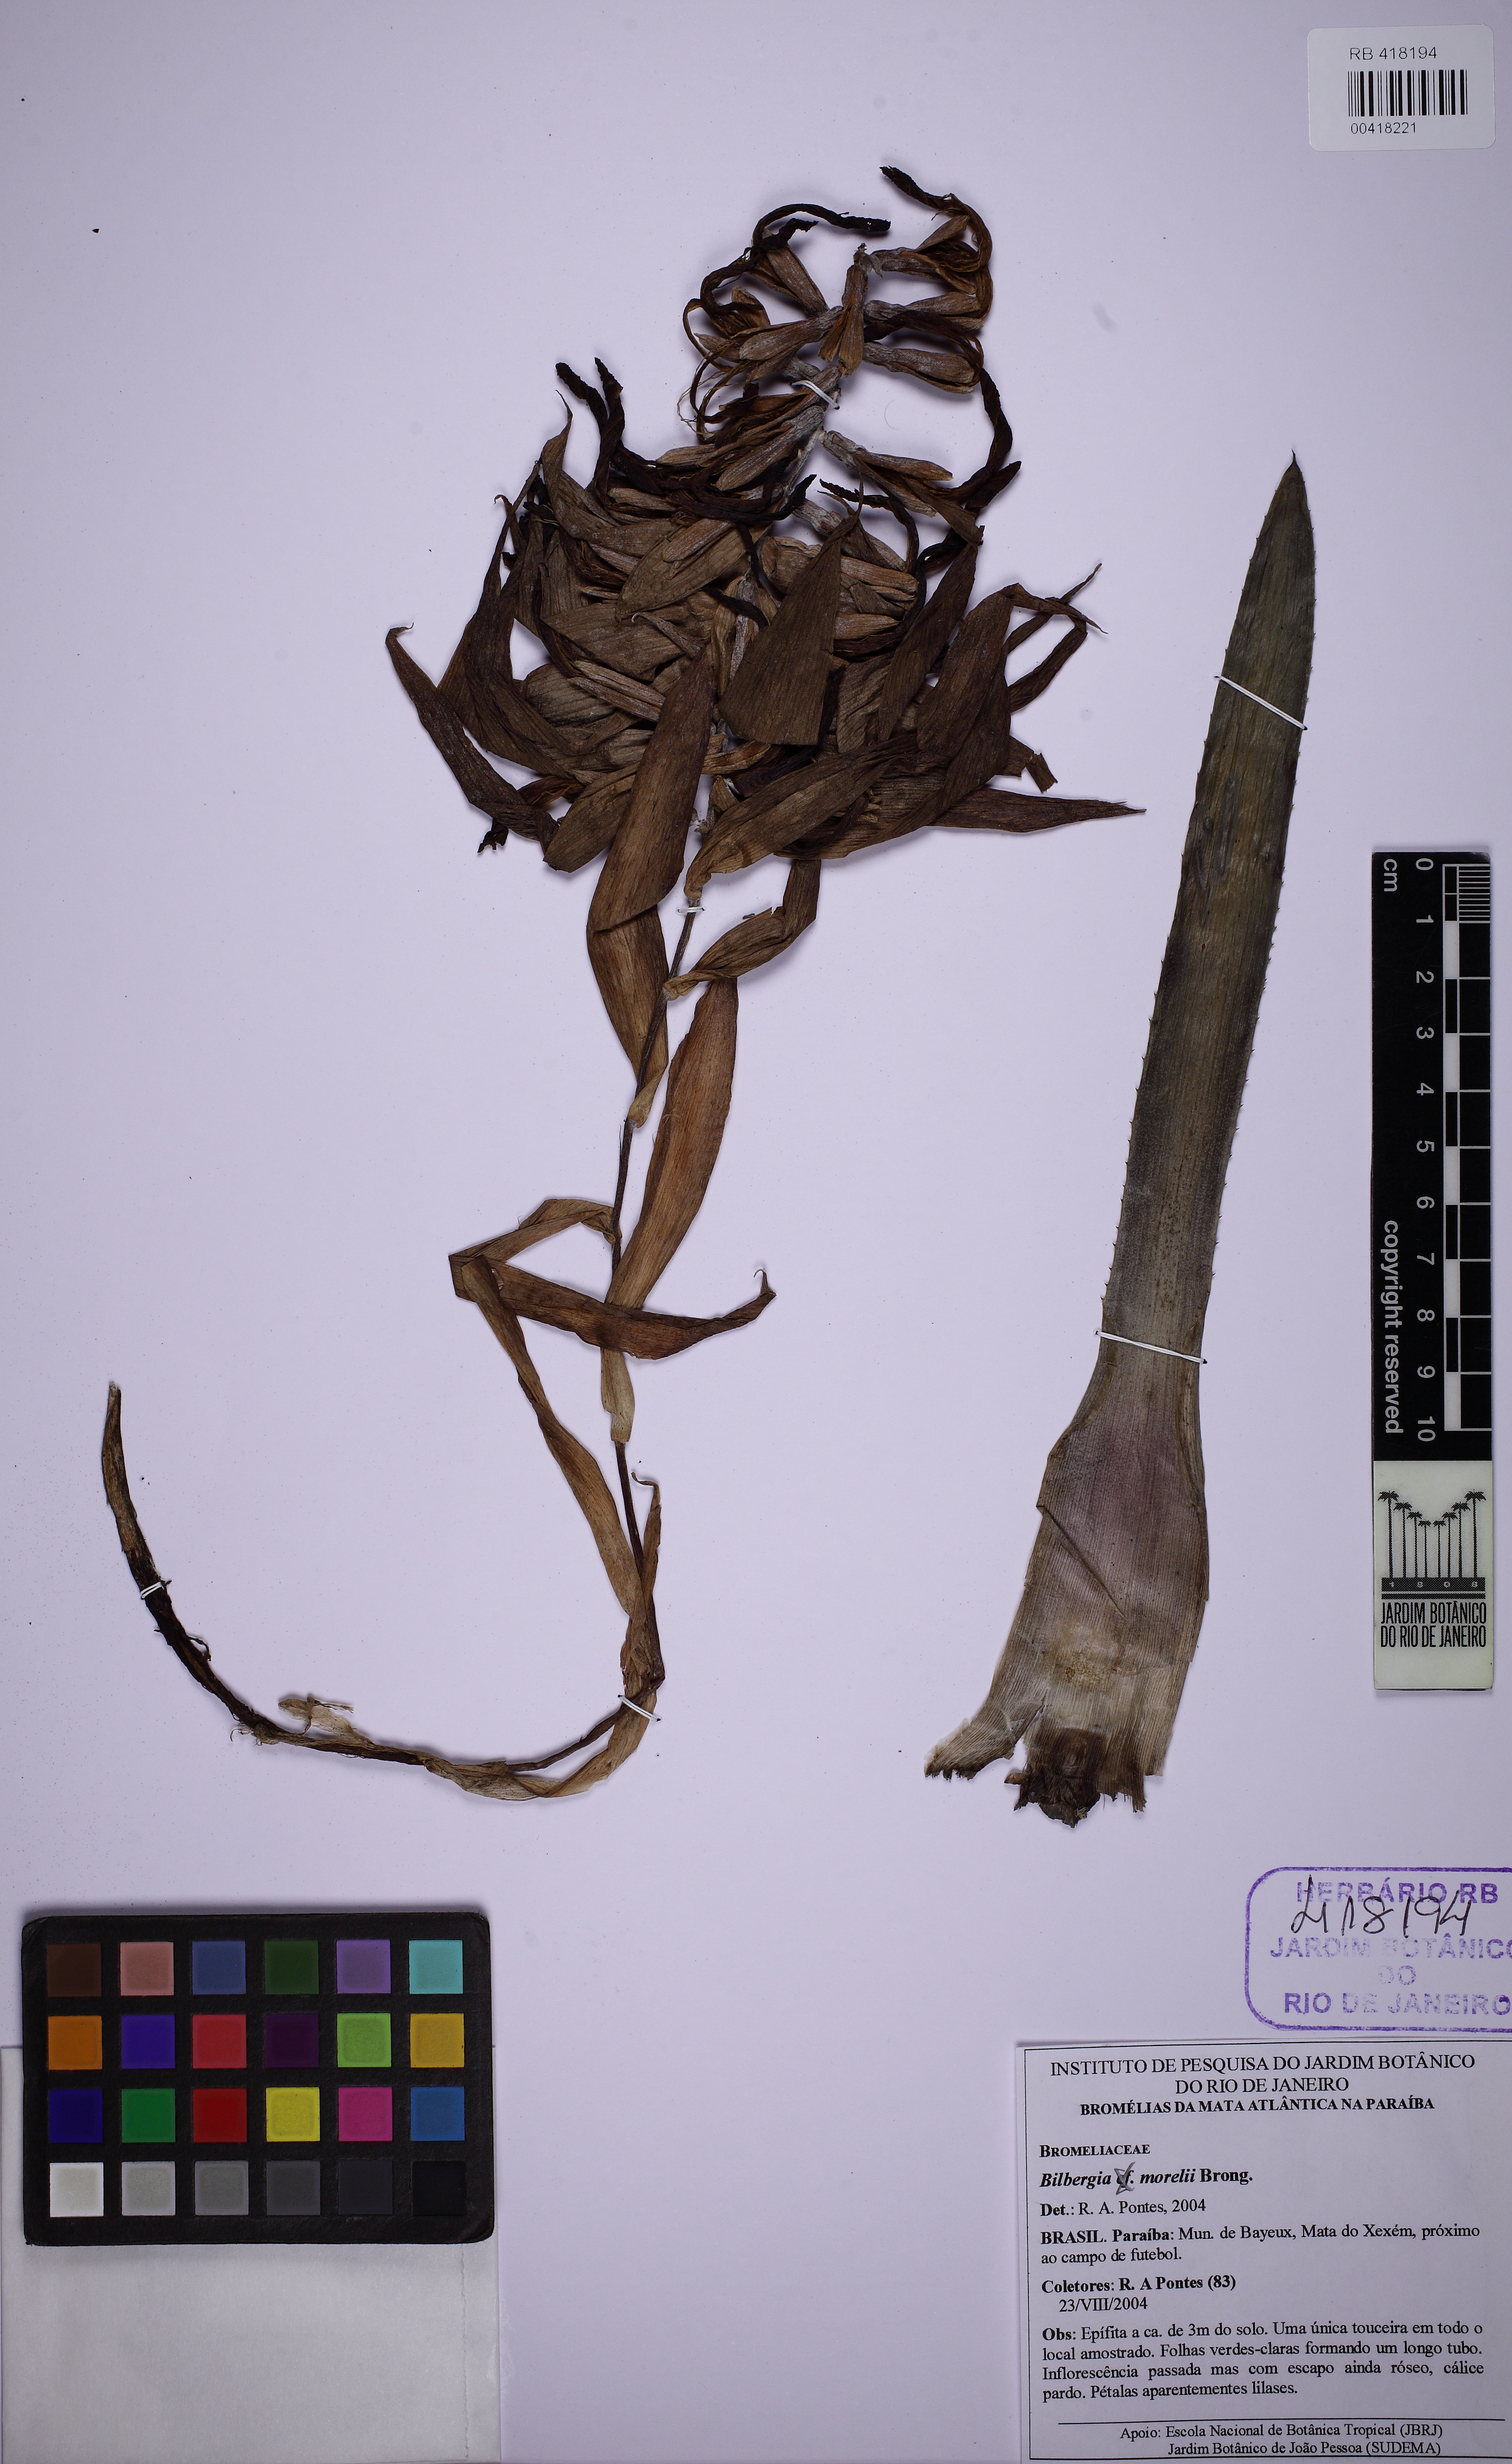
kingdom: Plantae
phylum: Tracheophyta
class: Liliopsida
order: Poales
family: Bromeliaceae
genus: Billbergia
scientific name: Billbergia morelii
